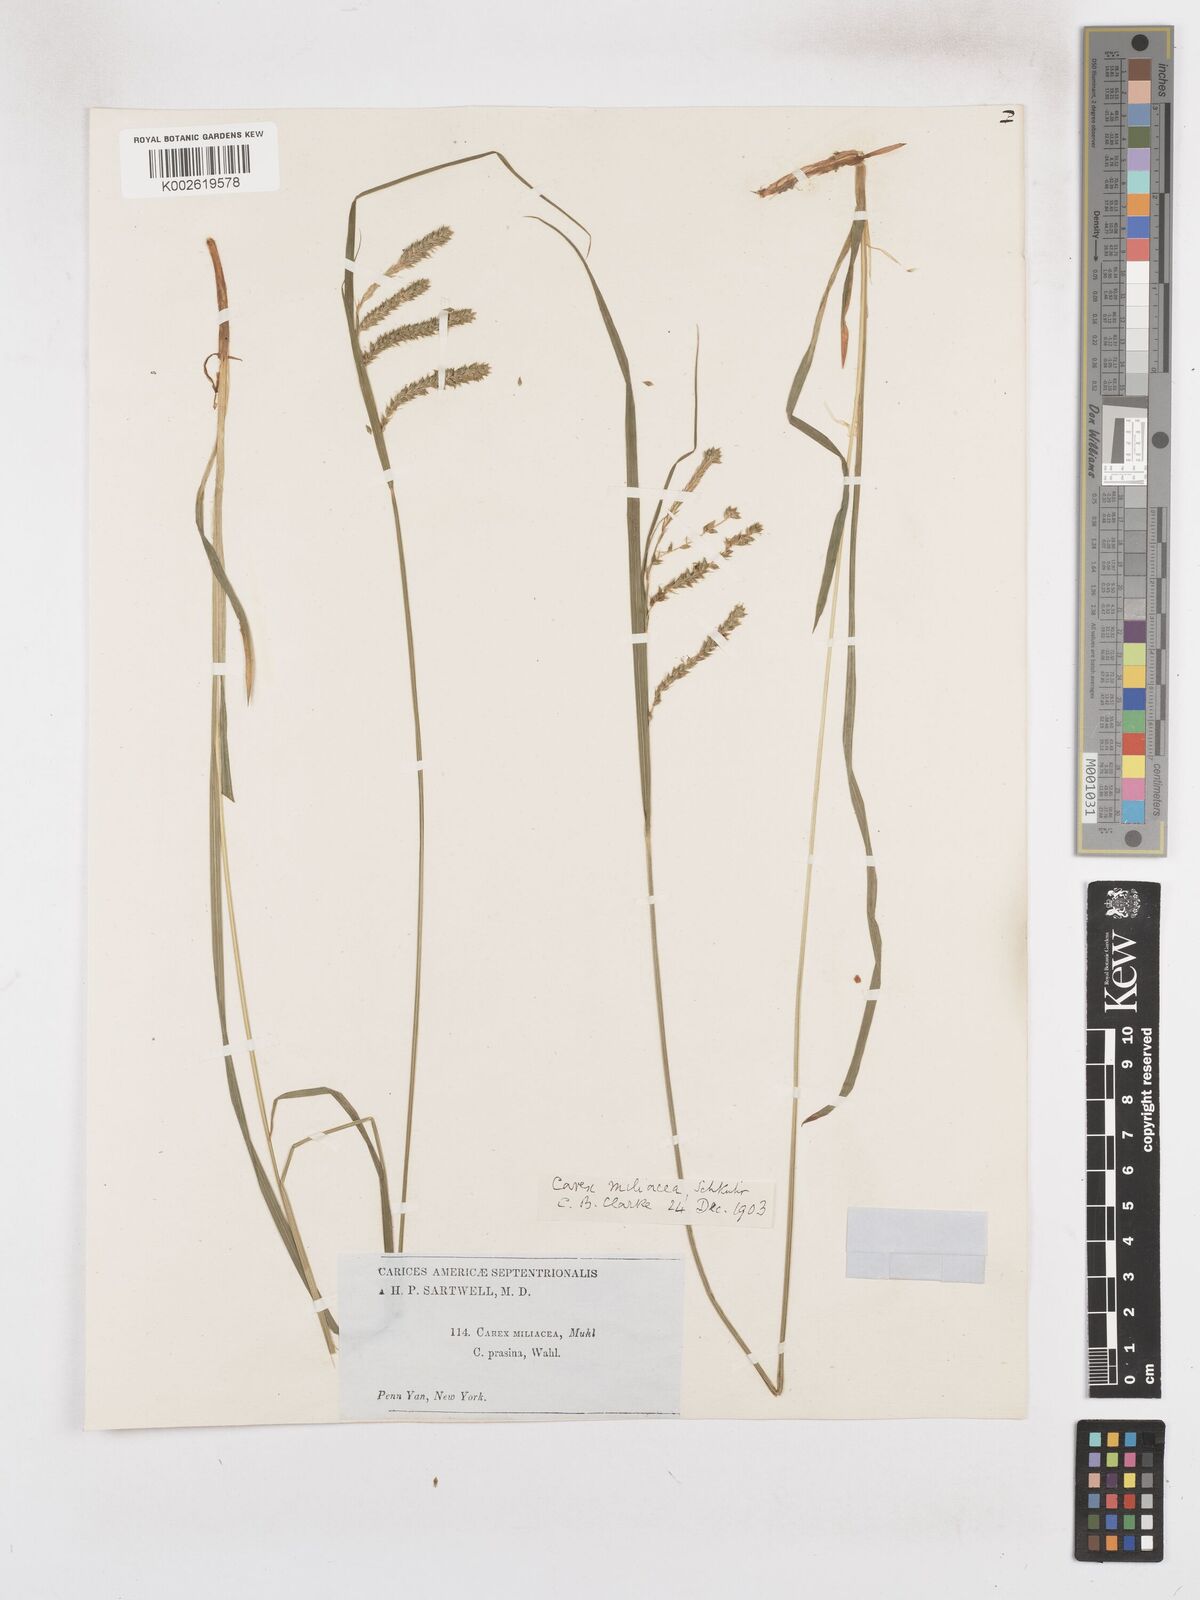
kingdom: Plantae
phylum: Tracheophyta
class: Liliopsida
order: Poales
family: Cyperaceae
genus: Carex
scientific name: Carex prasina
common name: Drooping sedge
